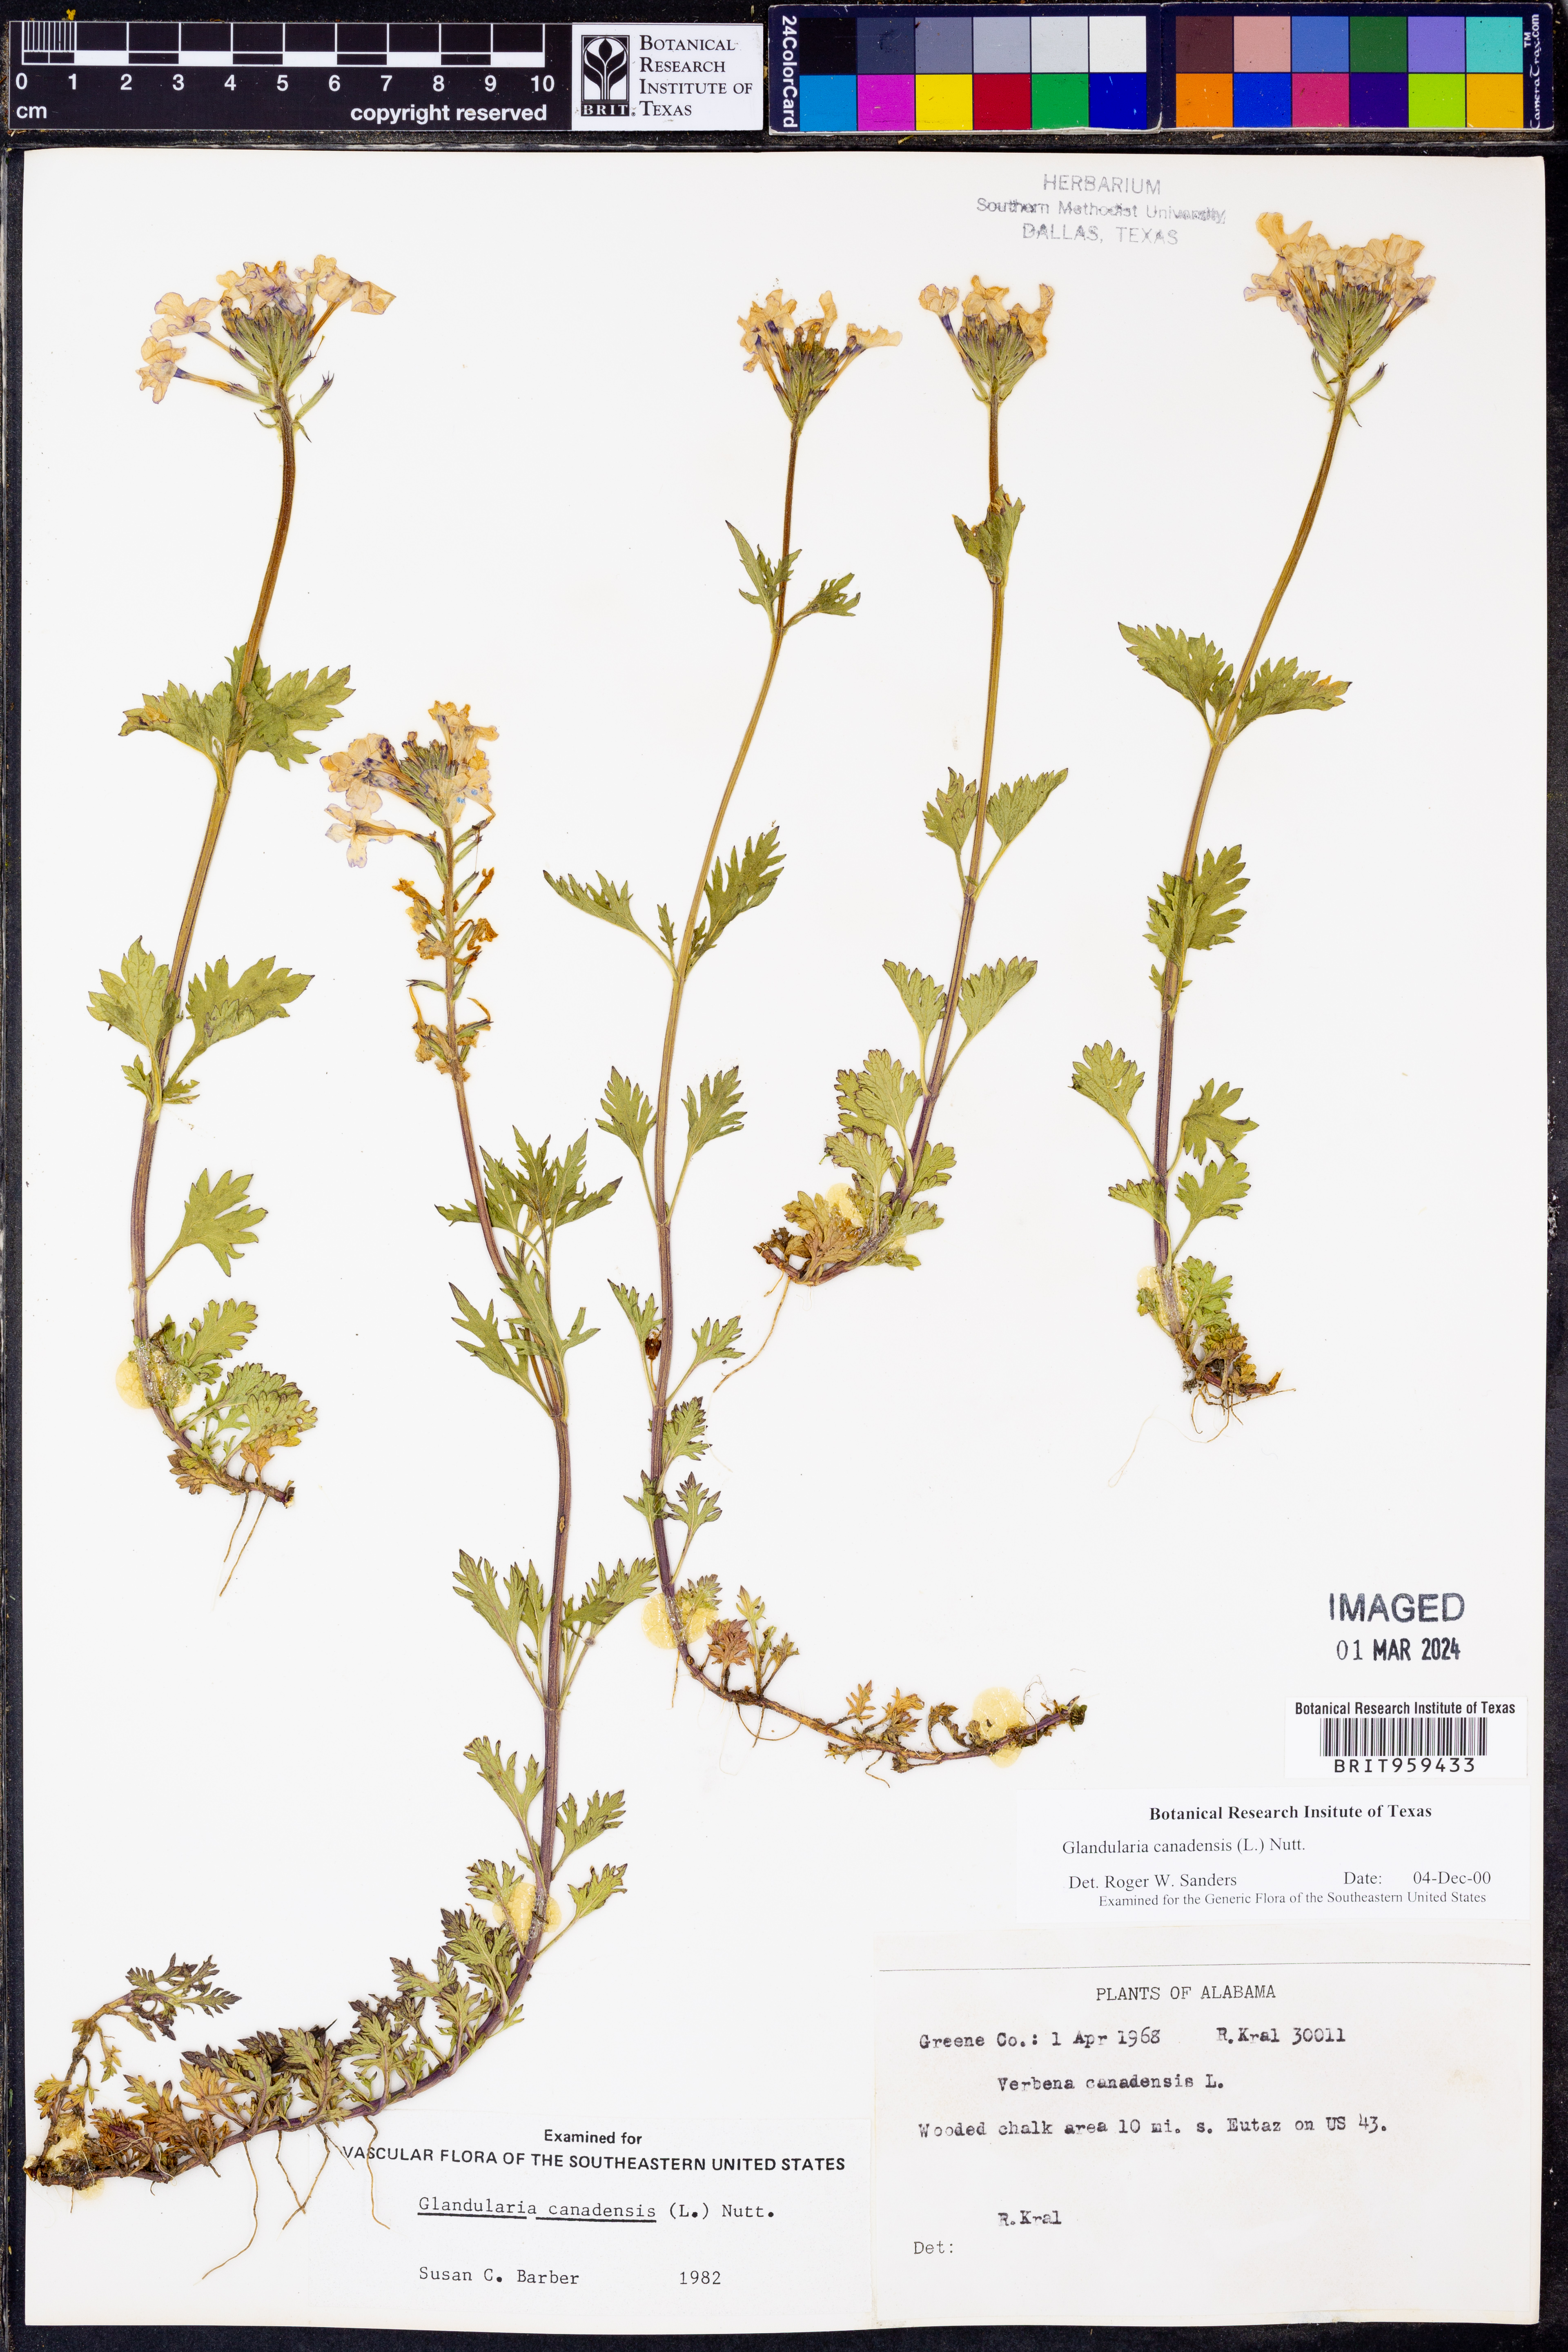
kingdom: Plantae
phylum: Tracheophyta
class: Magnoliopsida
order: Lamiales
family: Verbenaceae
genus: Verbena
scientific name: Verbena canadensis
